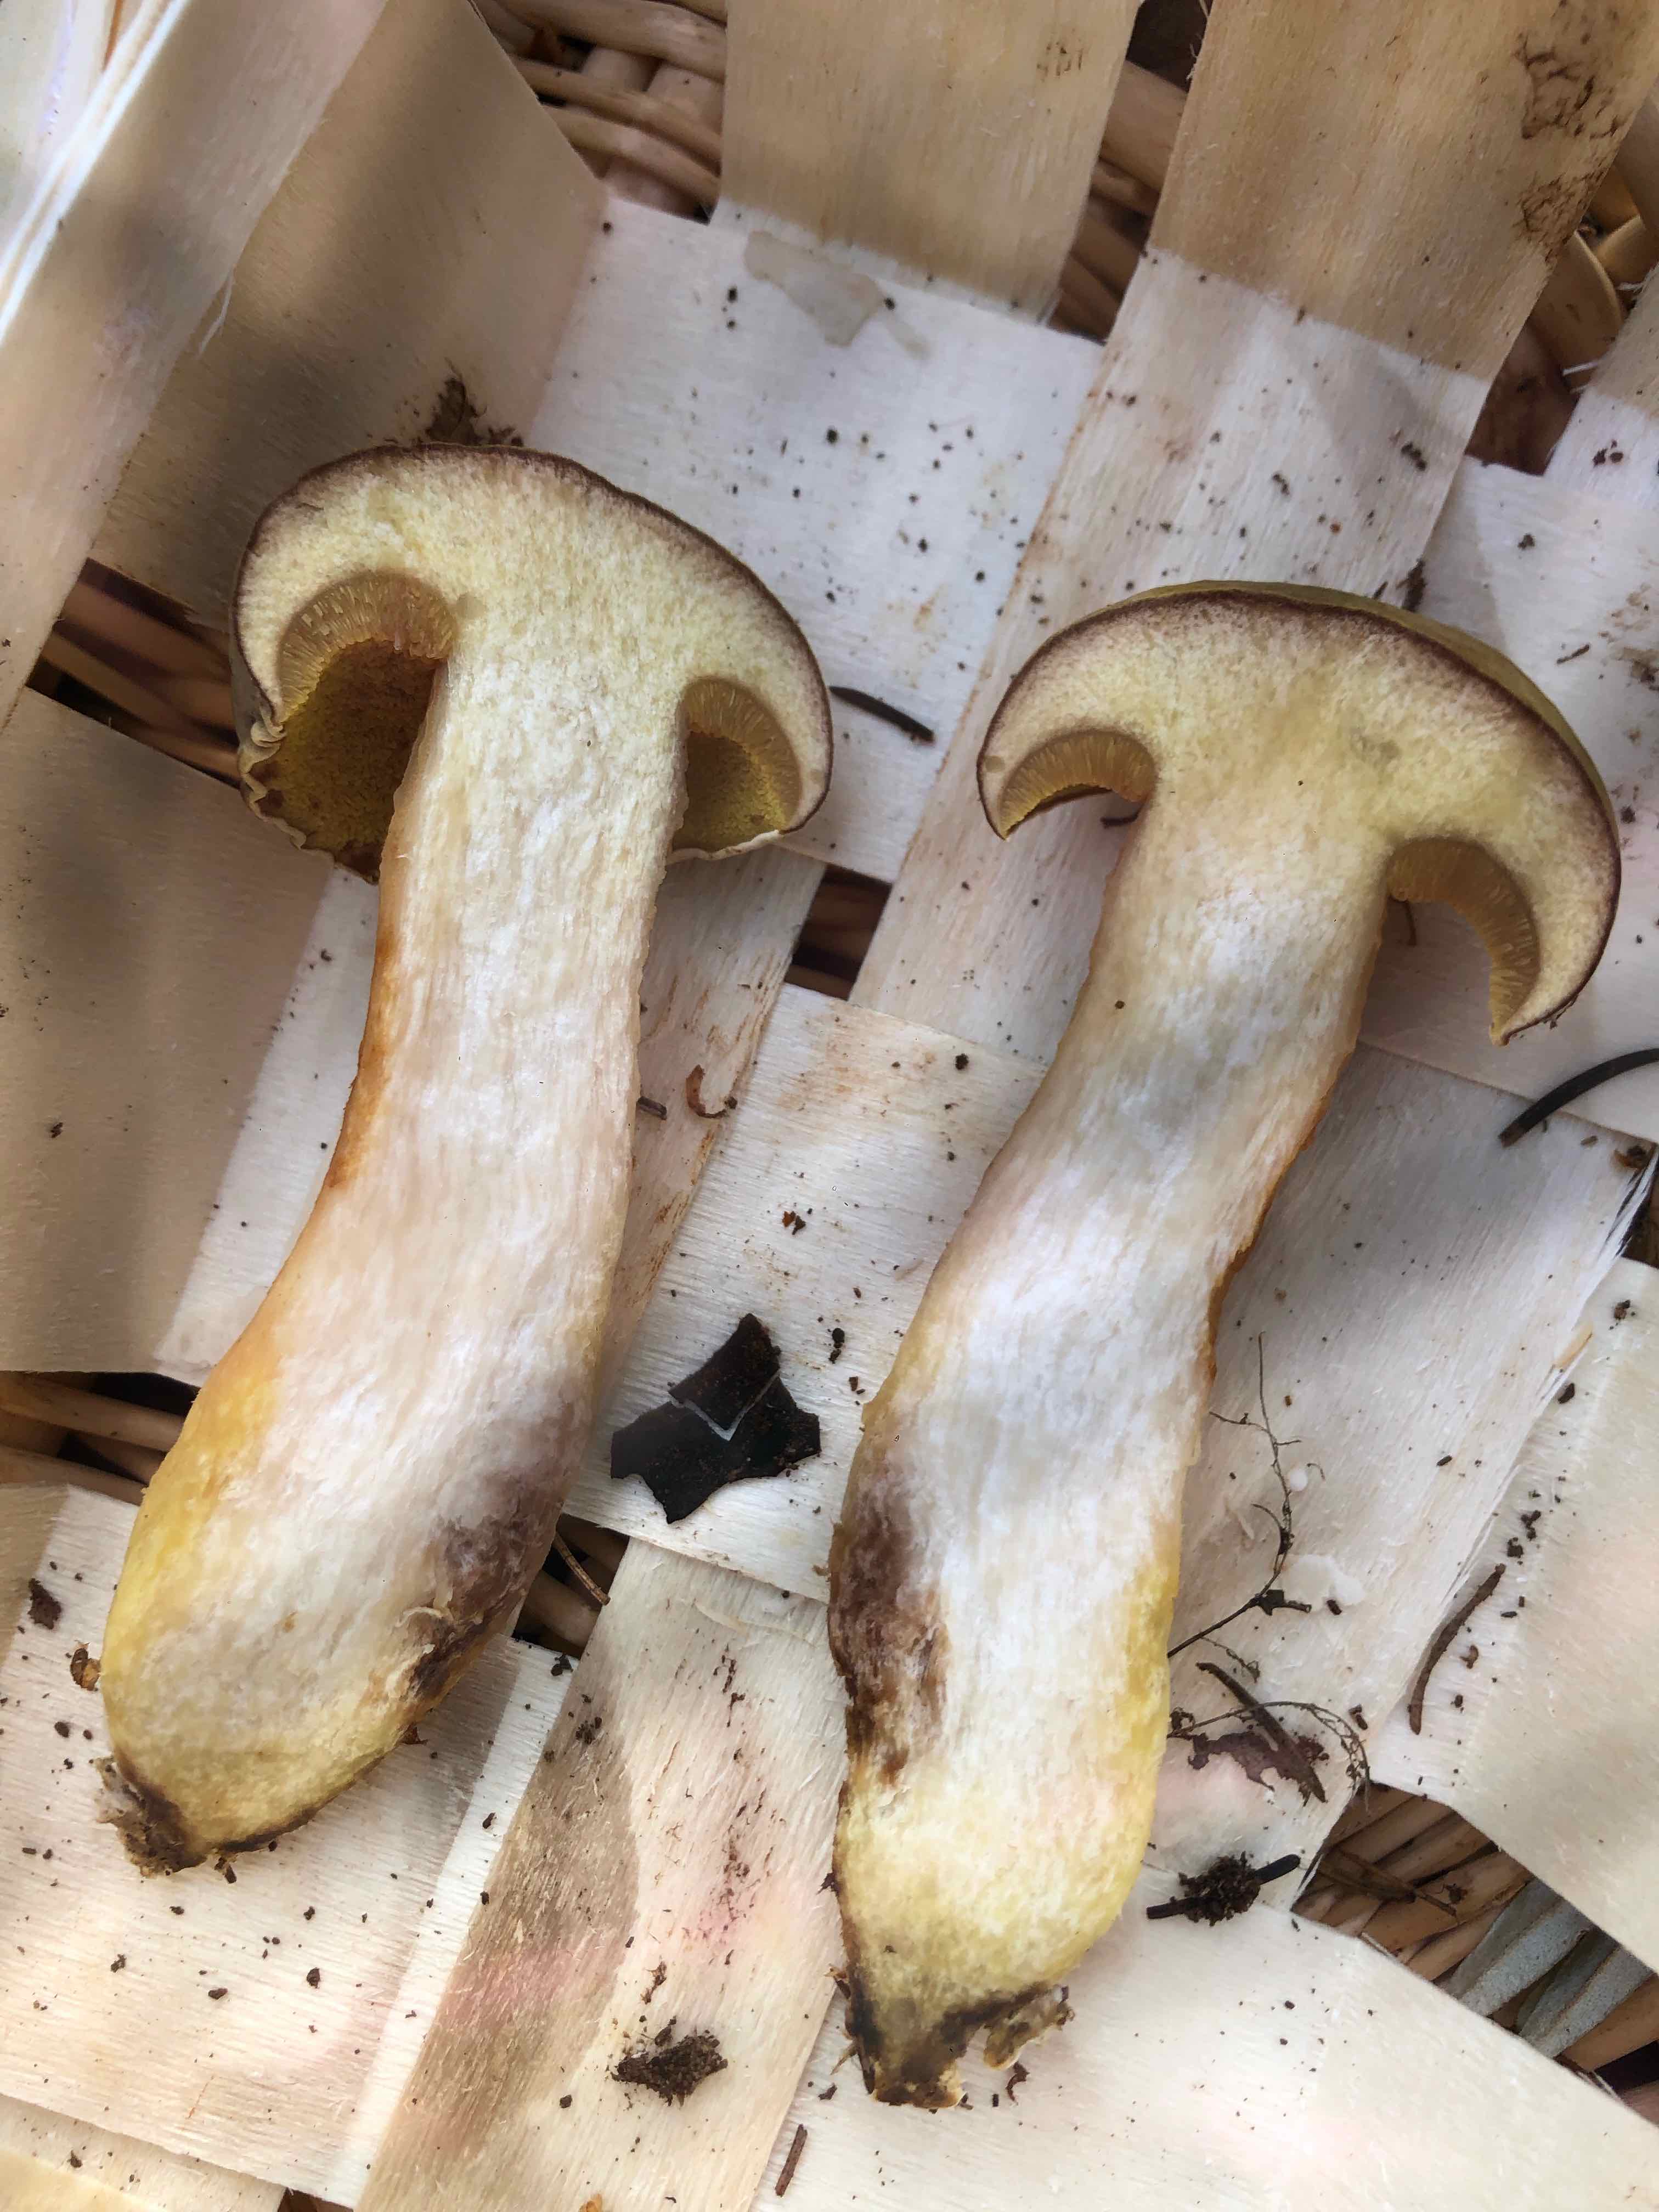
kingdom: Fungi
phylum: Basidiomycota
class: Agaricomycetes
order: Boletales
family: Boletaceae
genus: Xerocomus
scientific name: Xerocomus subtomentosus
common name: filtet rørhat
